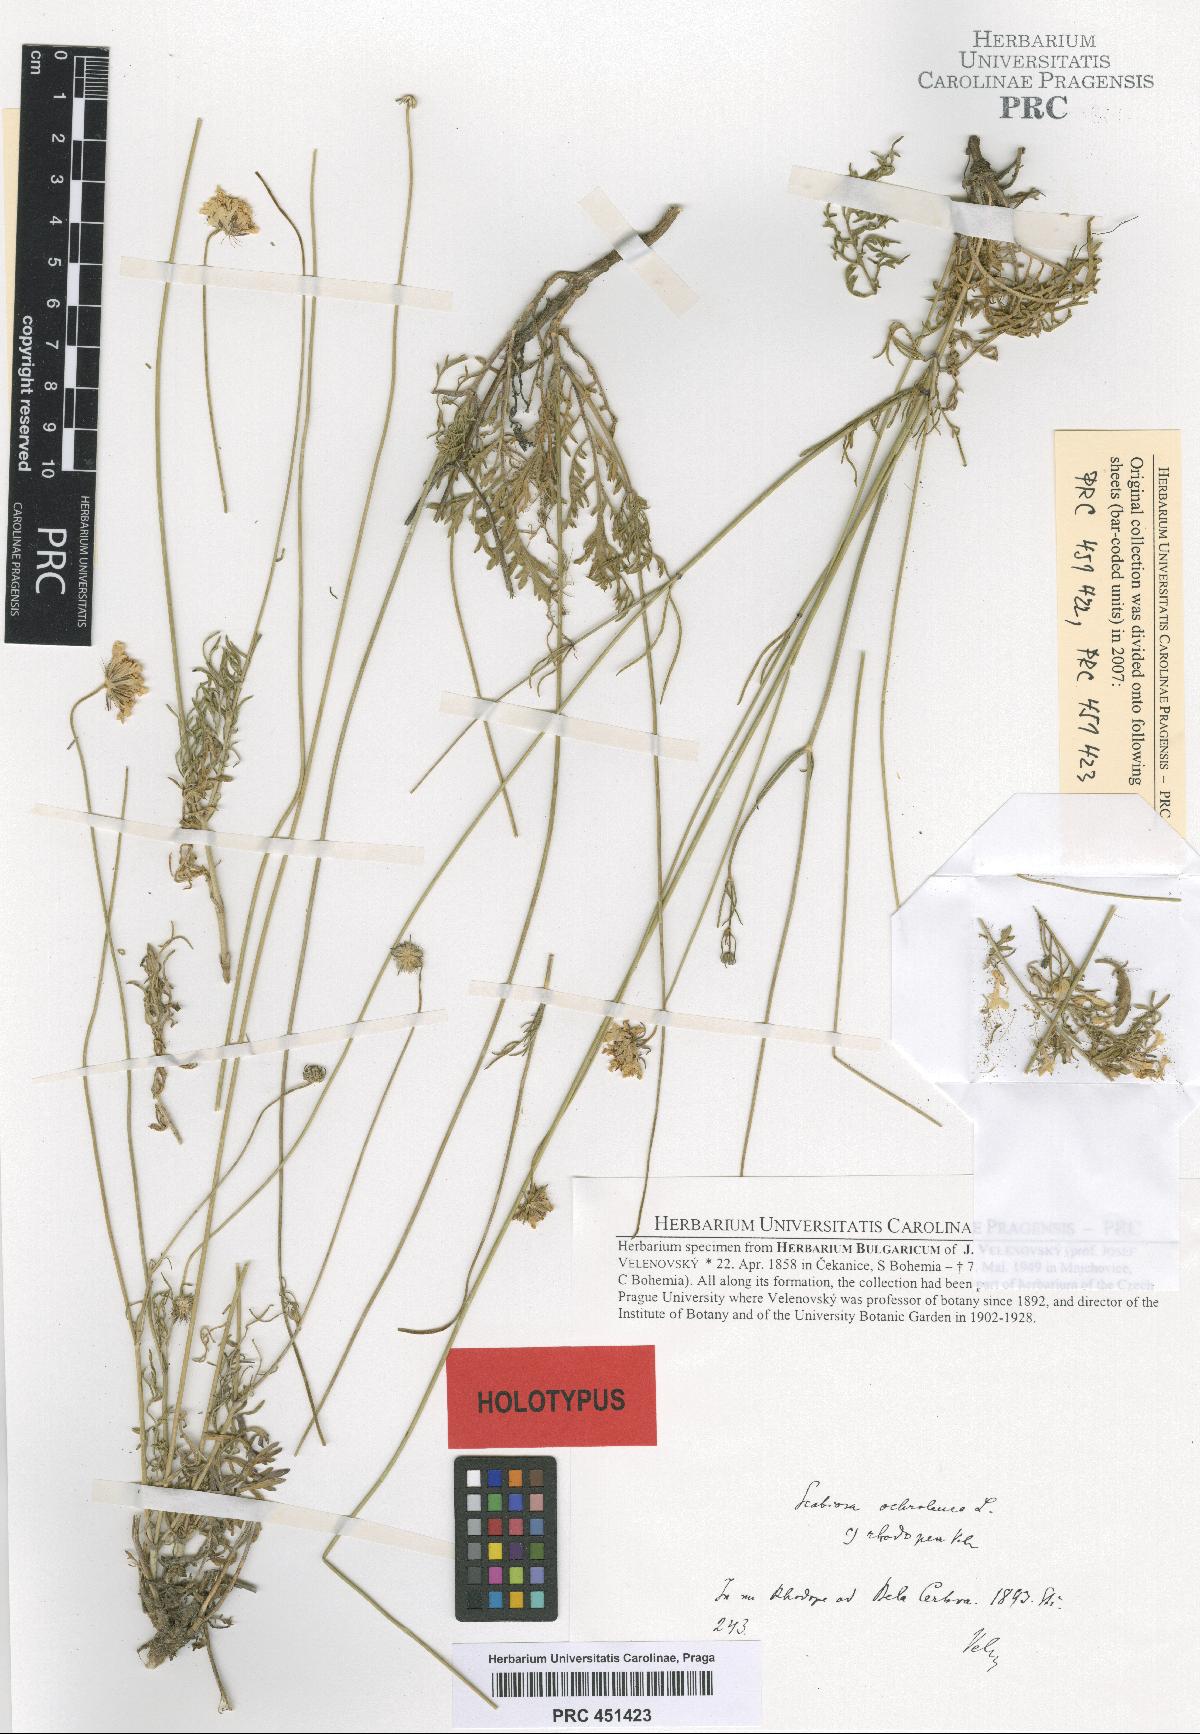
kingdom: Plantae
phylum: Tracheophyta
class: Magnoliopsida
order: Dipsacales
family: Caprifoliaceae
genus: Scabiosa
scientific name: Scabiosa ochroleuca
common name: Cream pincushions
